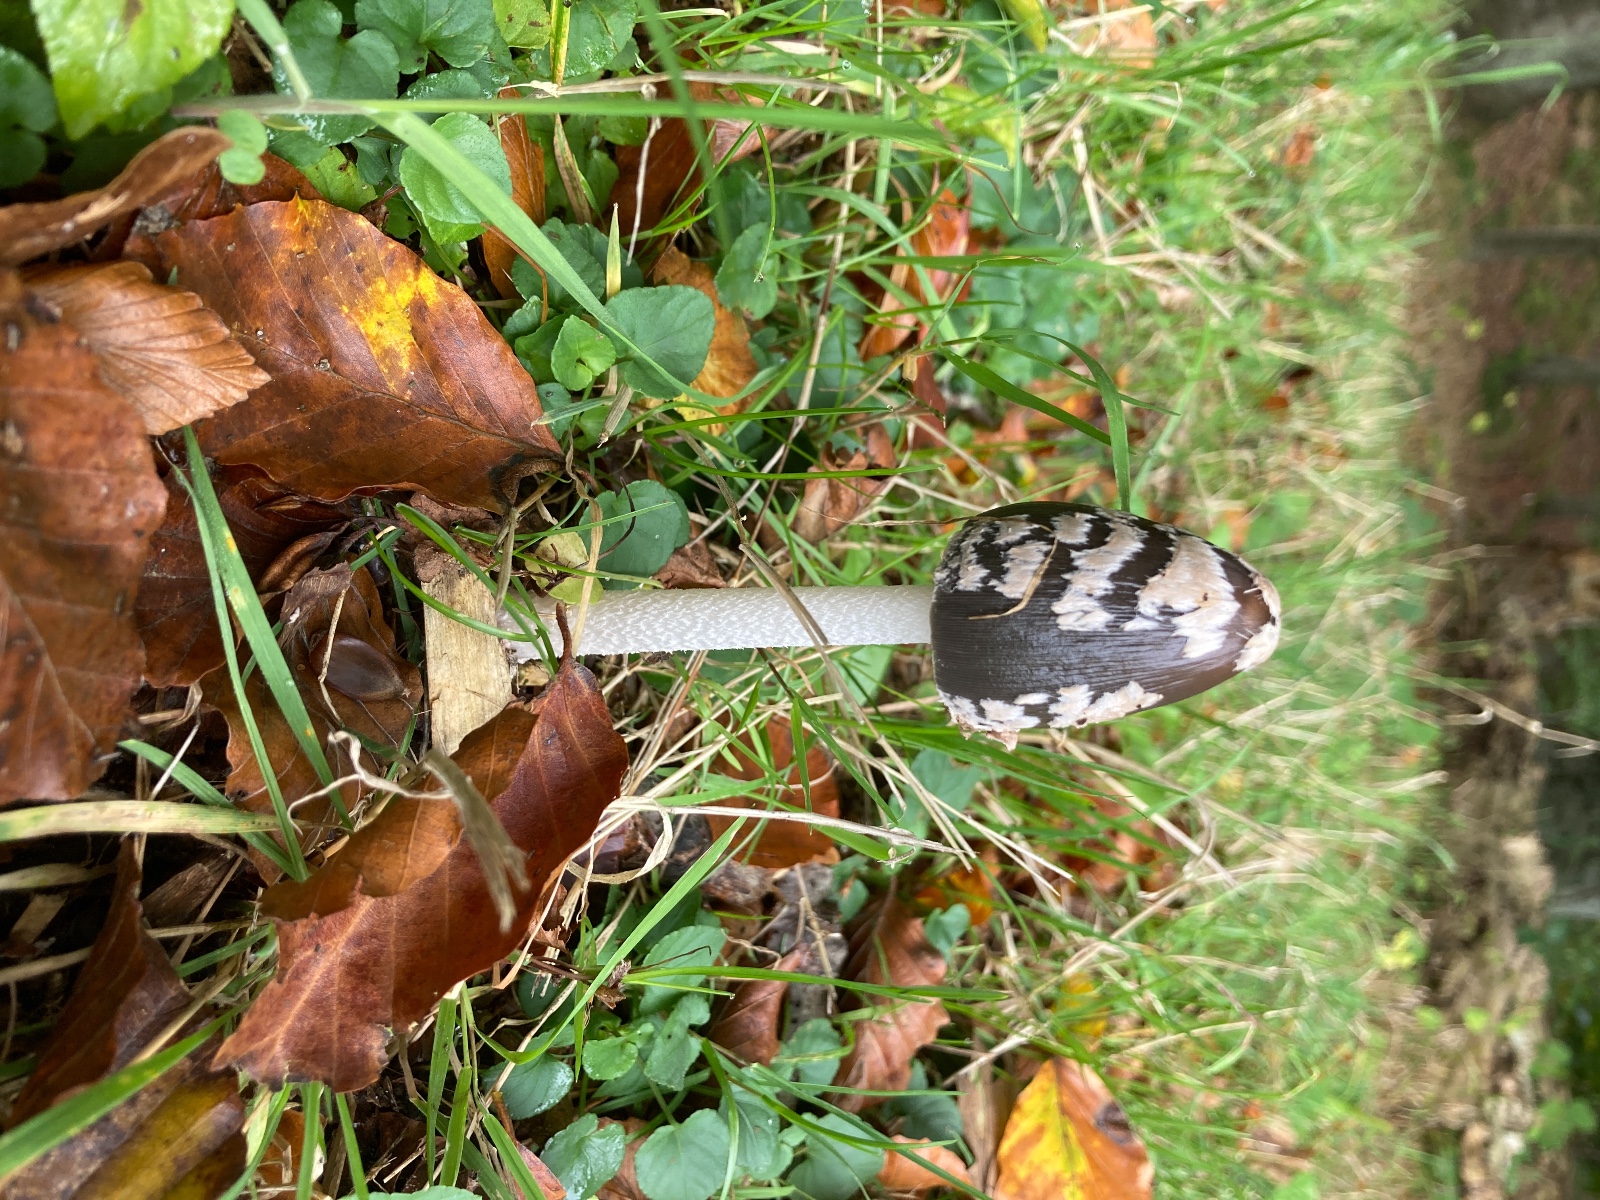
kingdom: Fungi
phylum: Basidiomycota
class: Agaricomycetes
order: Agaricales
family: Psathyrellaceae
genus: Coprinopsis
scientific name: Coprinopsis picacea
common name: skade-blækhat
